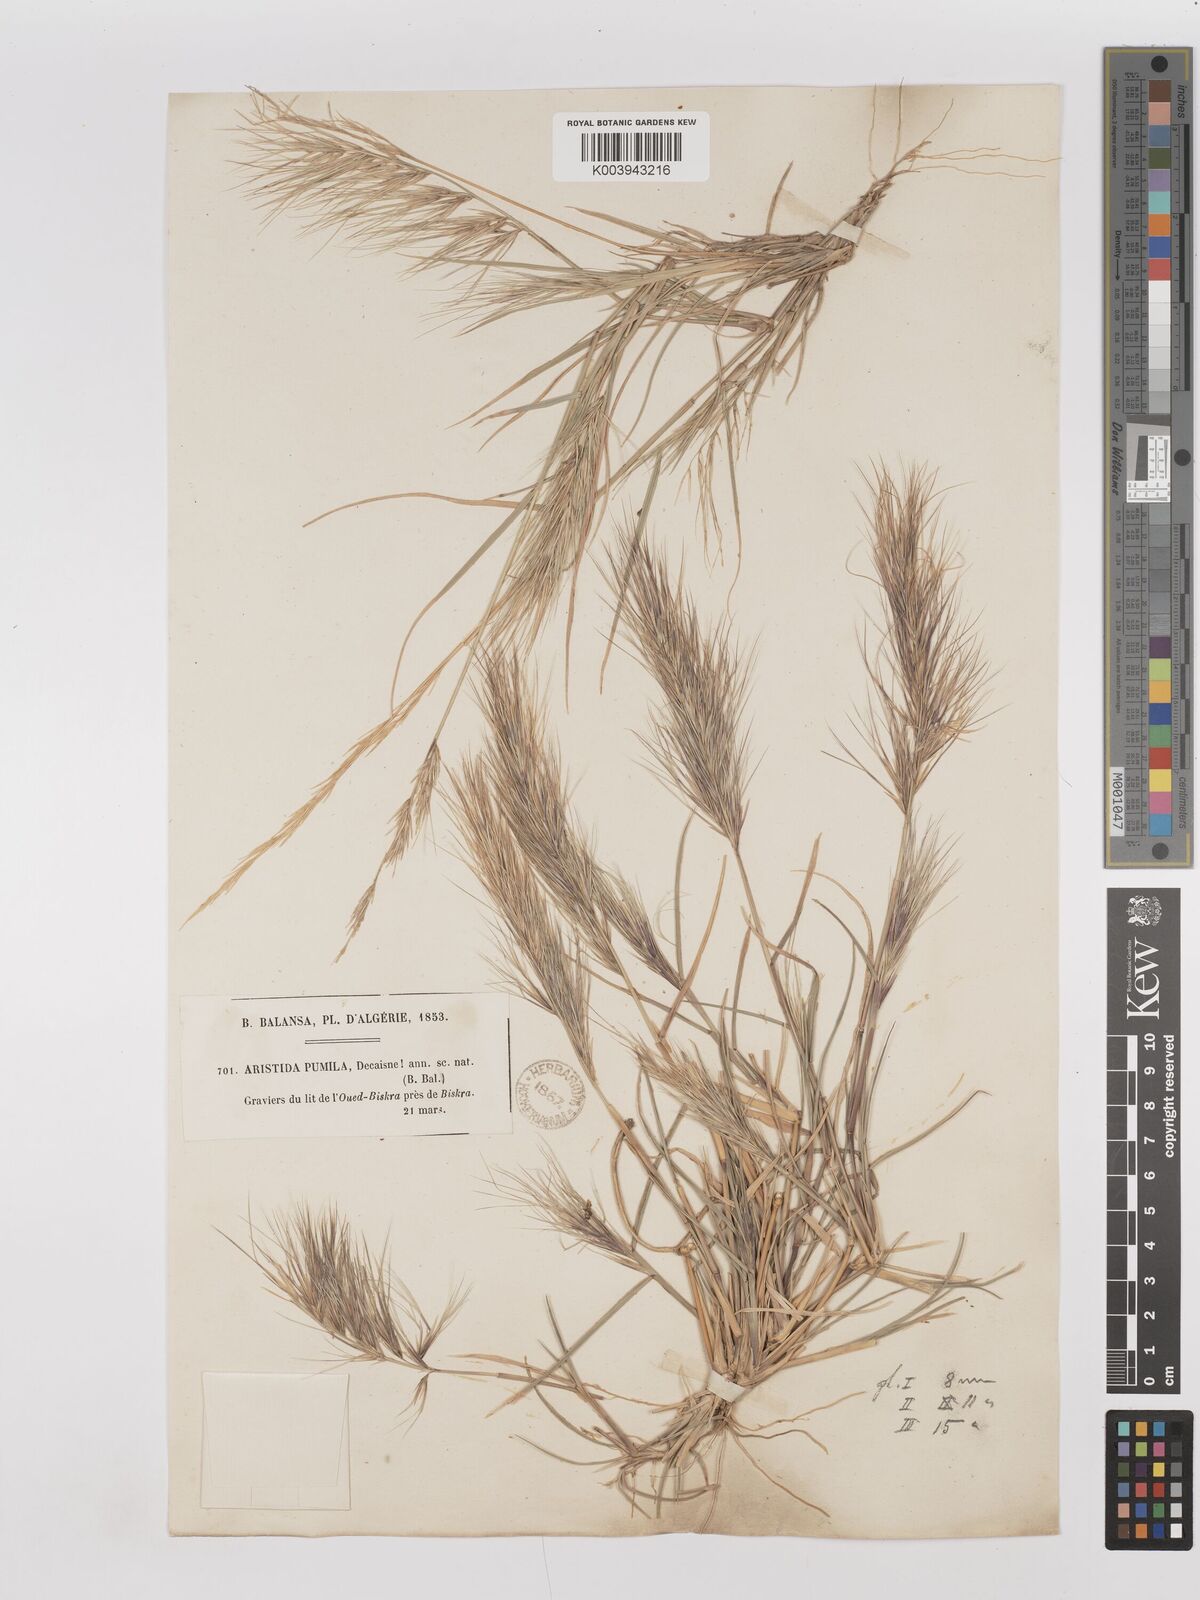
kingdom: Plantae
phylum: Tracheophyta
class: Liliopsida
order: Poales
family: Poaceae
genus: Aristida
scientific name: Aristida adscensionis
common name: Sixweeks threeawn
